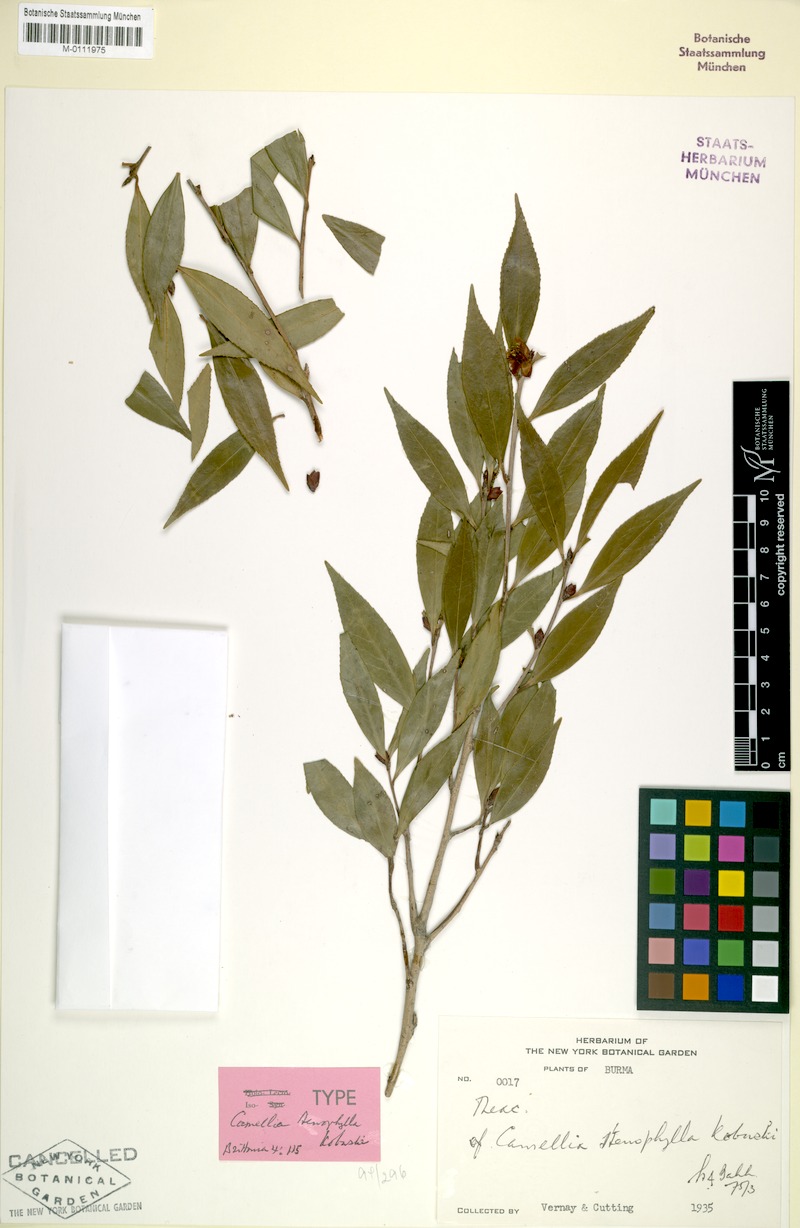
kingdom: Plantae
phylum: Tracheophyta
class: Magnoliopsida
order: Ericales
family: Theaceae
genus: Camellia
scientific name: Camellia fluviatilis
